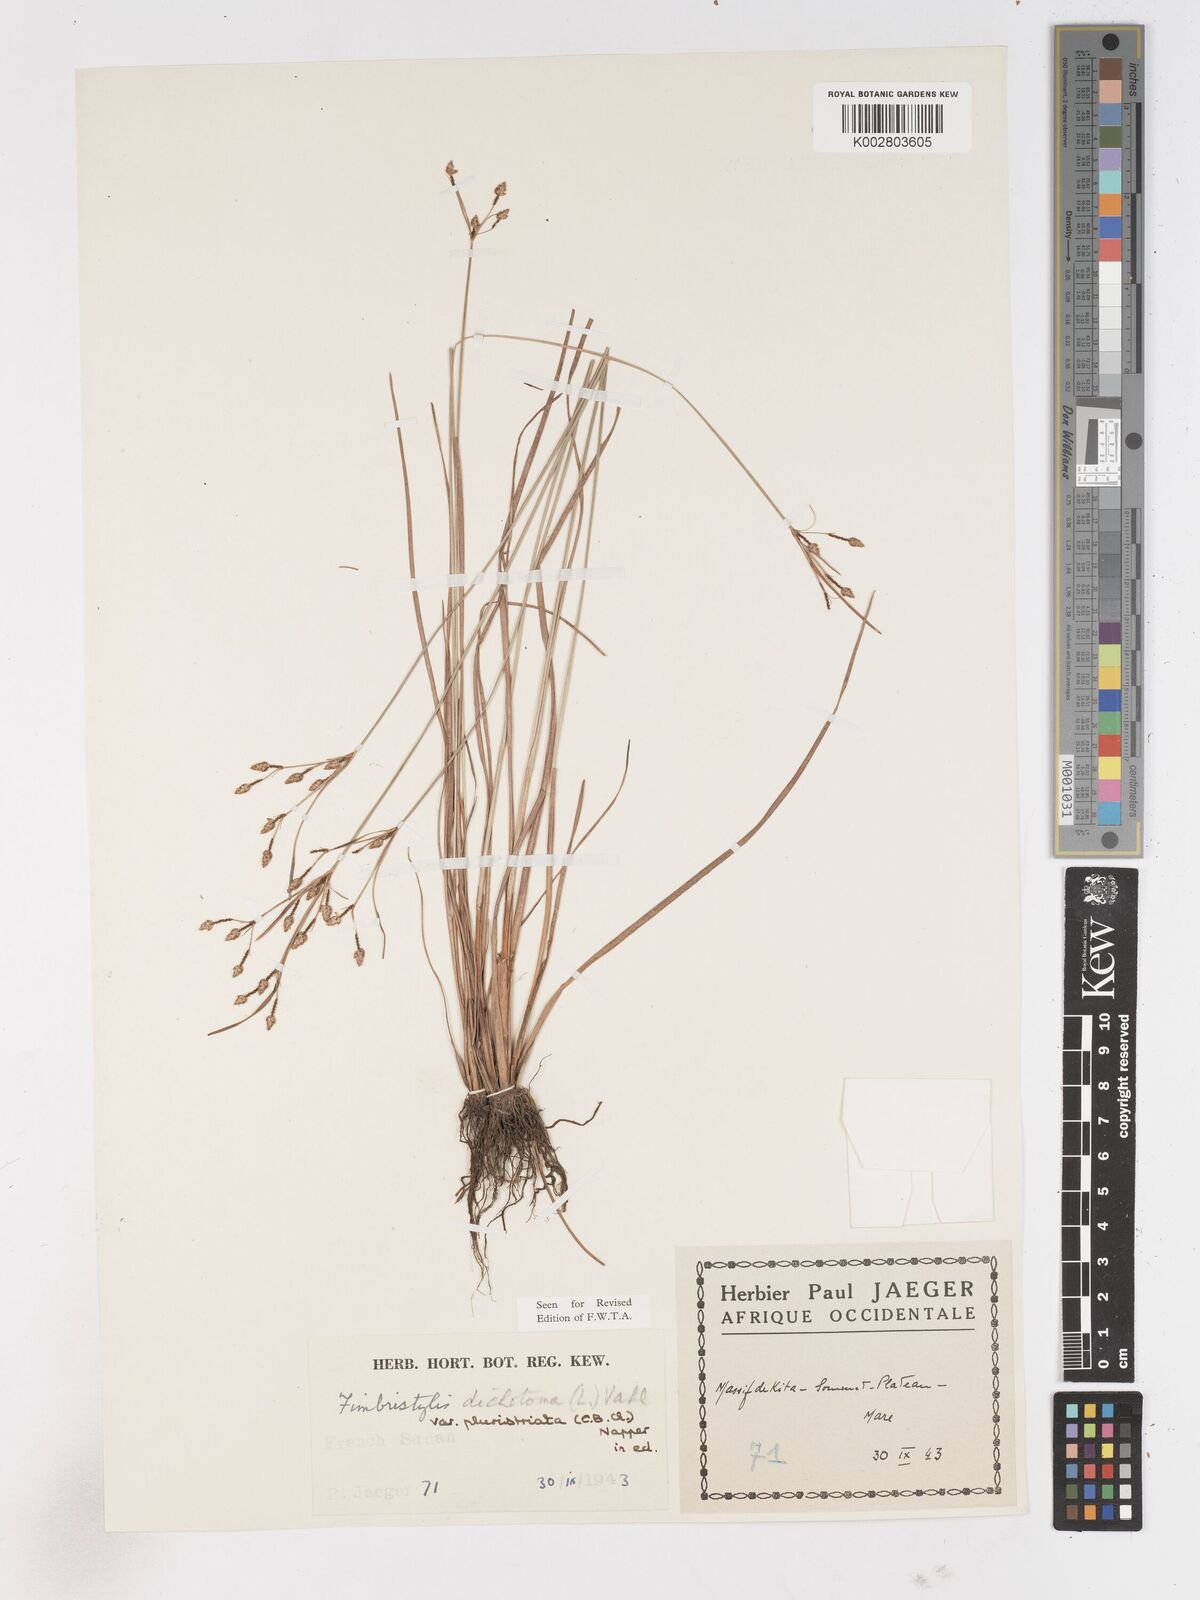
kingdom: Plantae
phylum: Tracheophyta
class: Liliopsida
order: Poales
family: Cyperaceae
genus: Fimbristylis
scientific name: Fimbristylis dichotoma
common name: Forked fimbry
